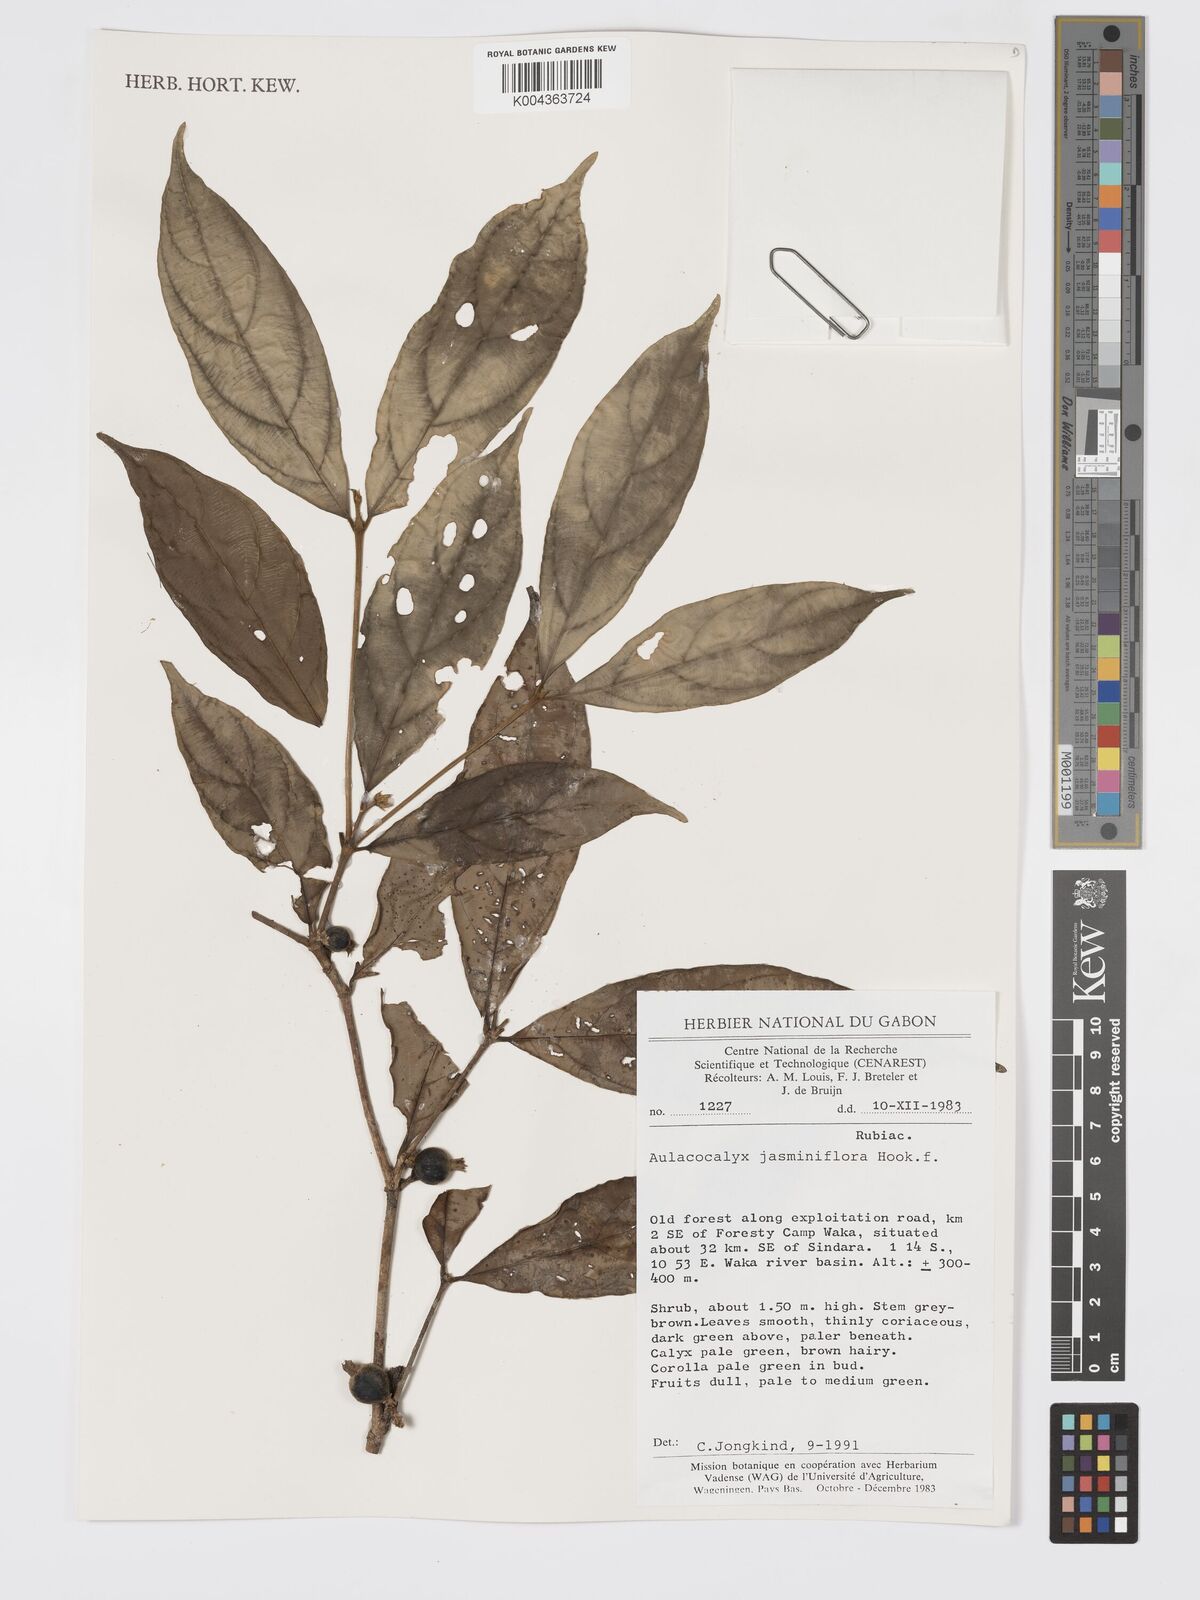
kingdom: Plantae
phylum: Tracheophyta
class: Magnoliopsida
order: Gentianales
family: Rubiaceae
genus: Aulacocalyx
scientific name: Aulacocalyx jasminiflora
